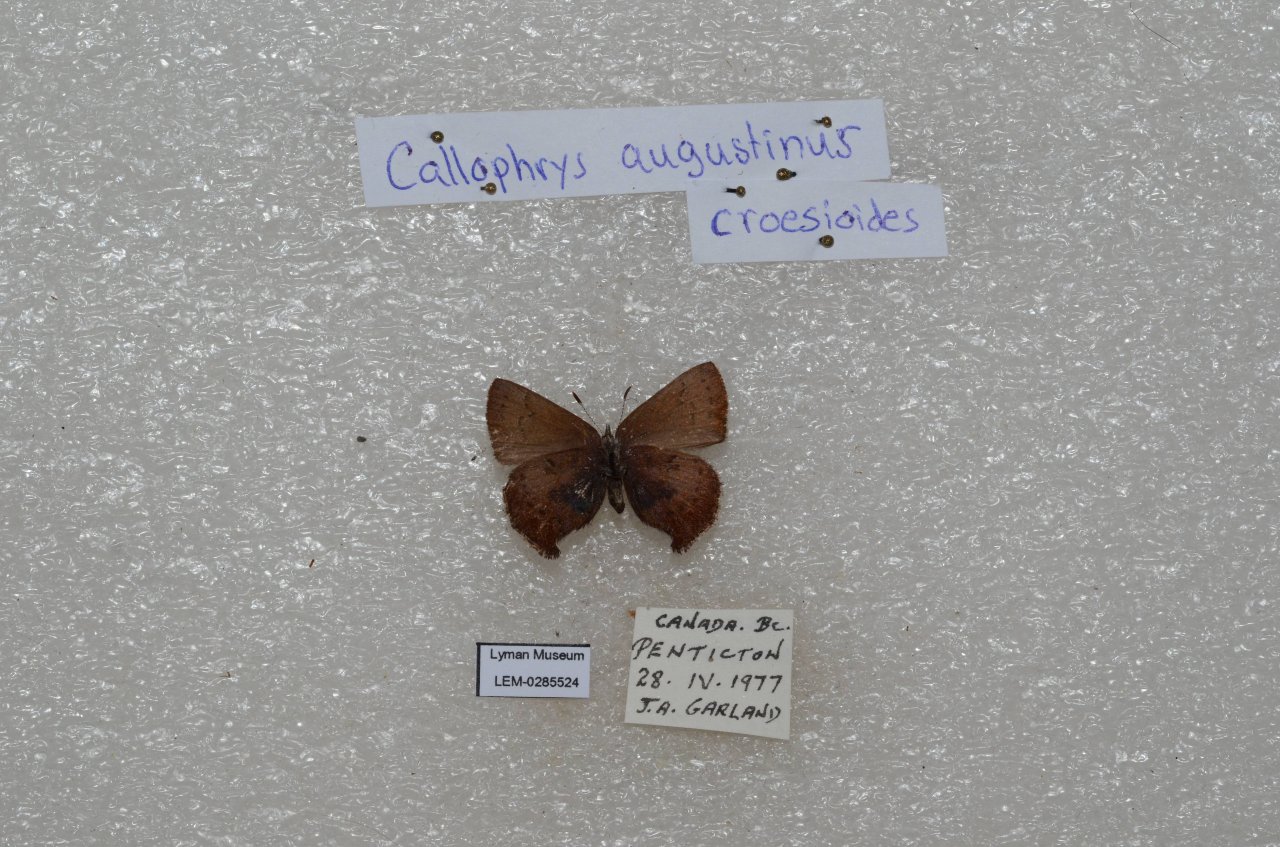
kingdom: Animalia
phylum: Arthropoda
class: Insecta
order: Lepidoptera
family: Lycaenidae
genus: Incisalia
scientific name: Incisalia irioides
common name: Brown Elfin
